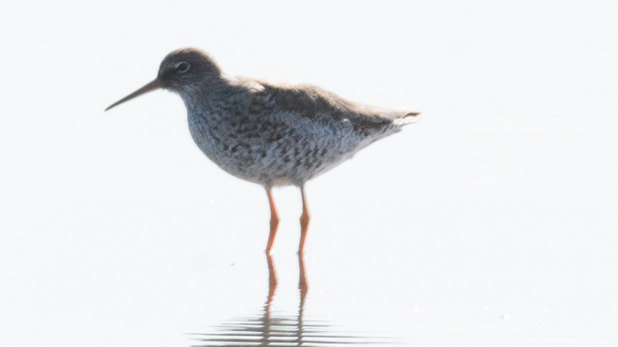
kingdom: Animalia
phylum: Chordata
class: Aves
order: Charadriiformes
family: Scolopacidae
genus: Tringa
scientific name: Tringa totanus
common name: Rødben
